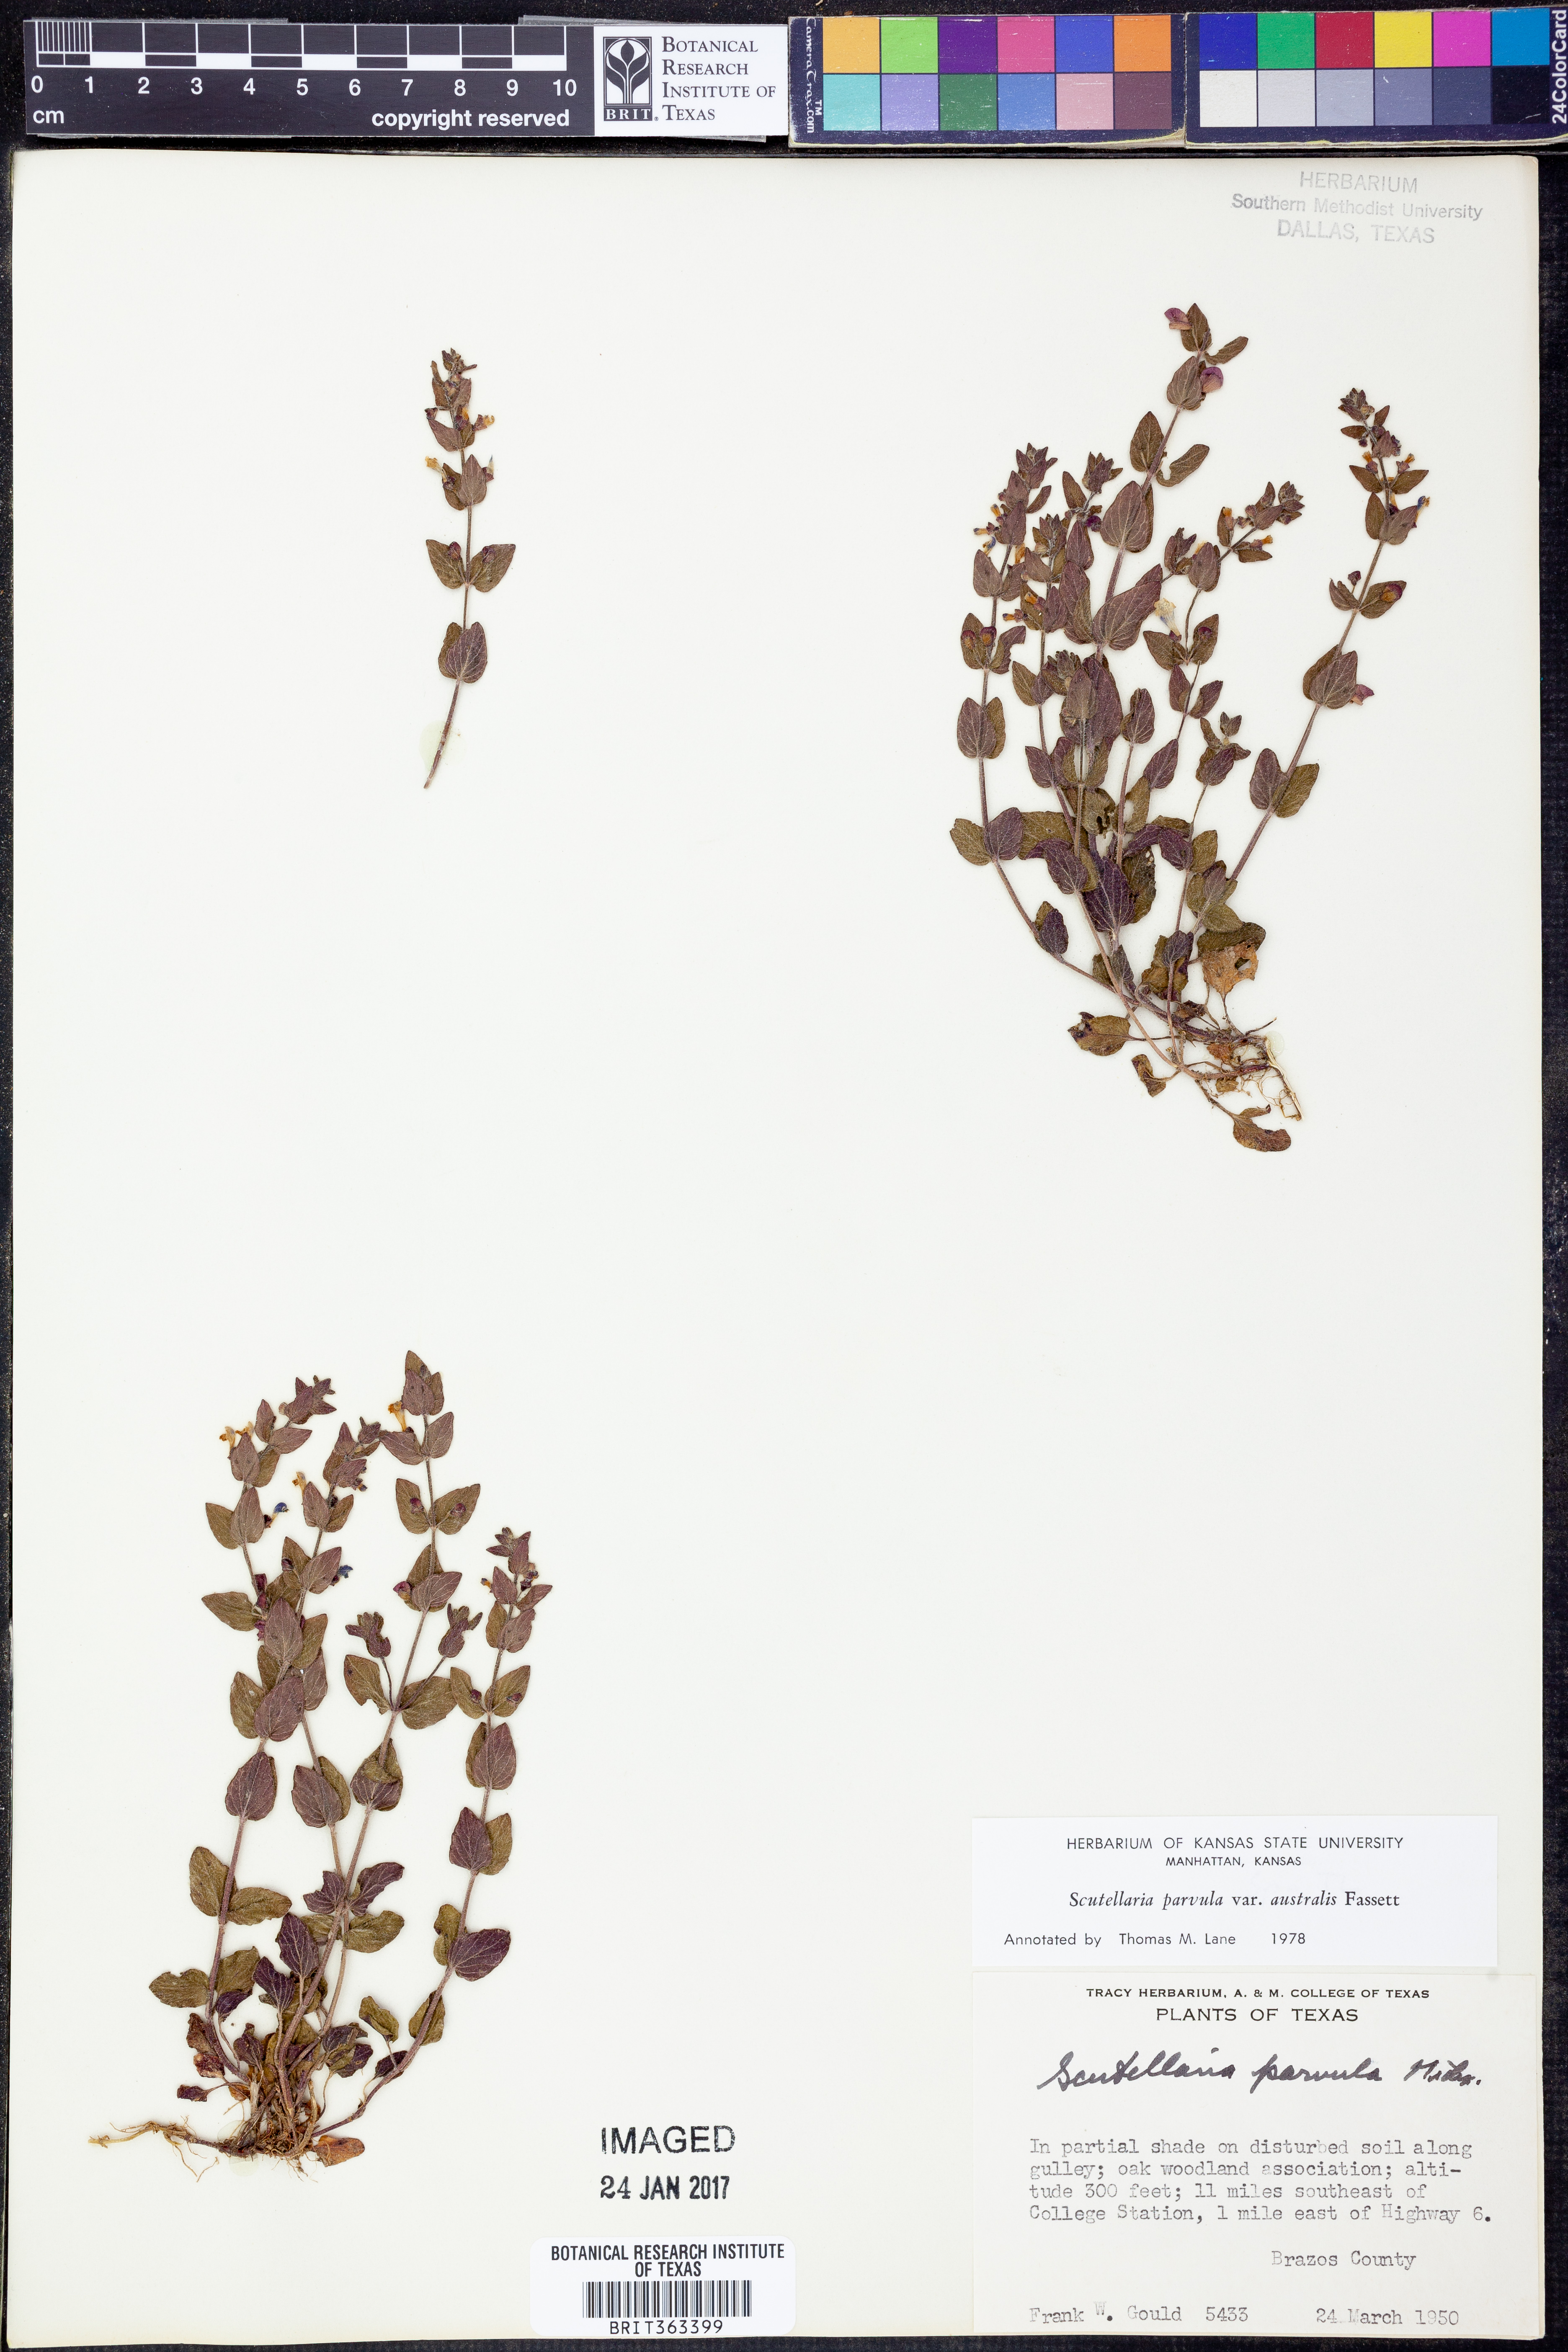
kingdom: Plantae
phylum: Tracheophyta
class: Magnoliopsida
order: Lamiales
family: Lamiaceae
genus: Scutellaria
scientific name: Scutellaria parvula
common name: Little scullcap
